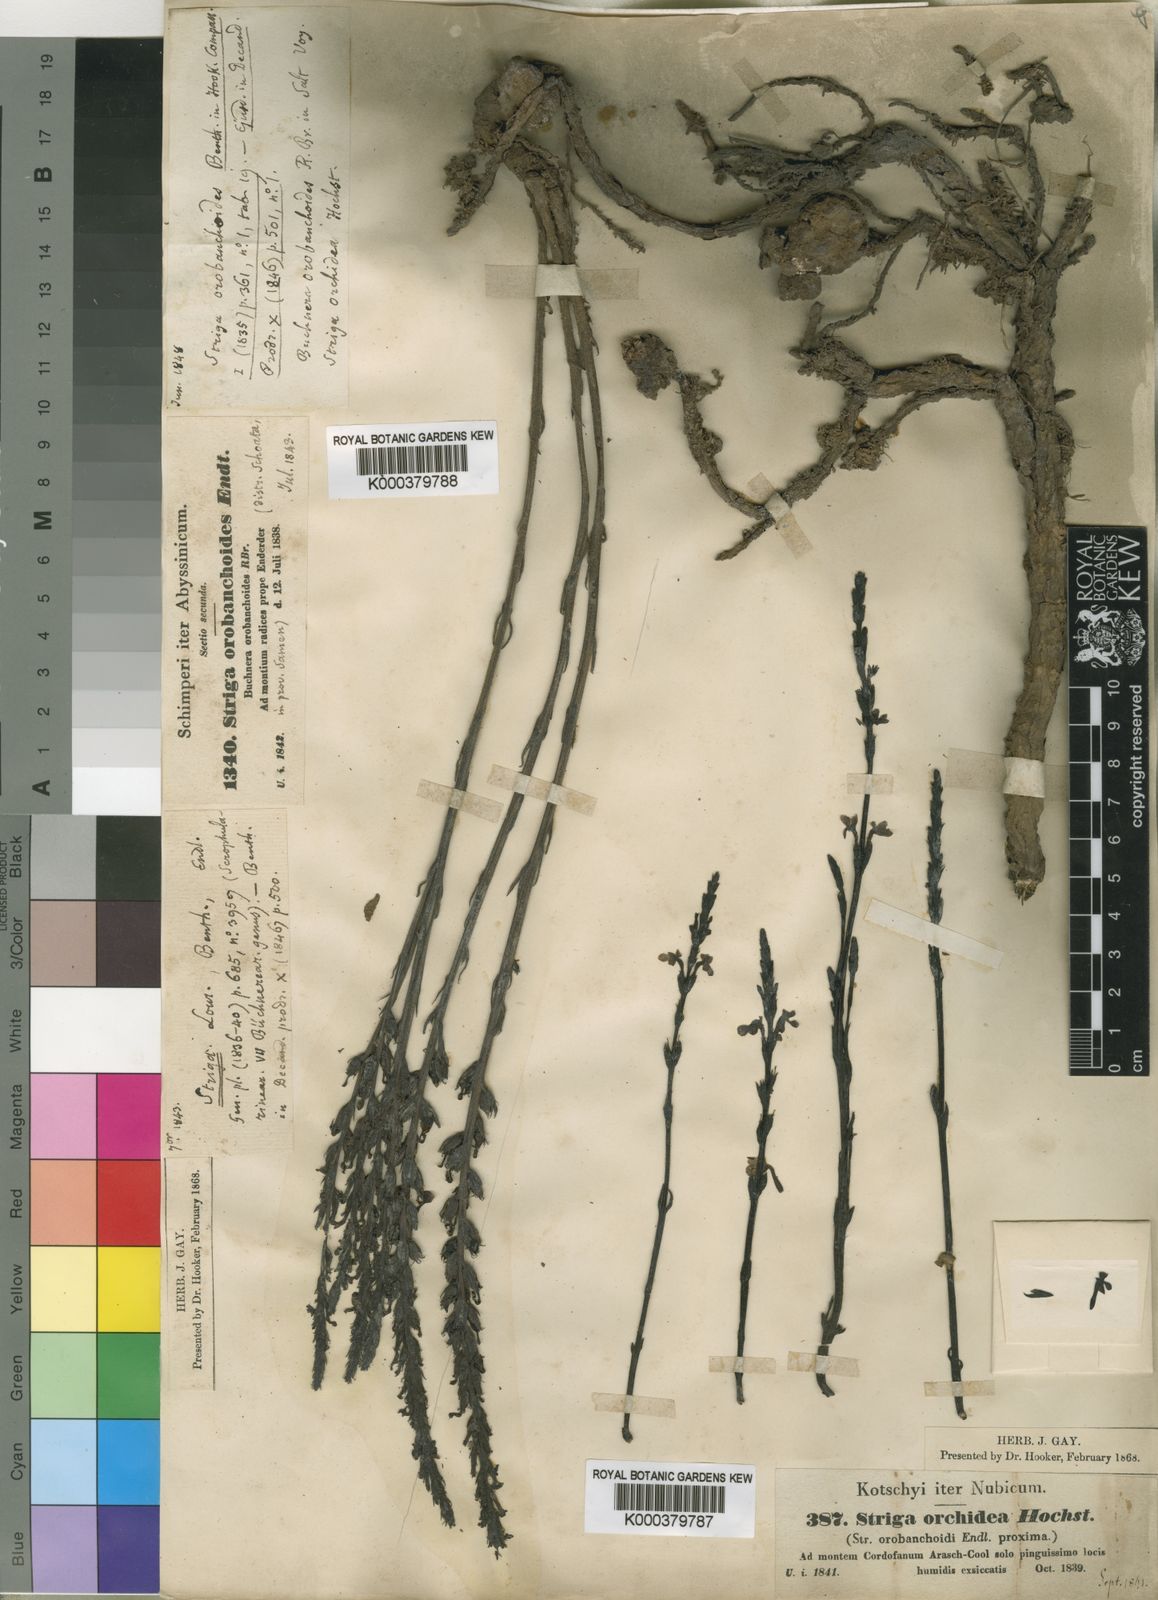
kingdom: Plantae
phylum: Tracheophyta
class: Magnoliopsida
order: Lamiales
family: Orobanchaceae
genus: Striga
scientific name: Striga gesnerioides
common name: Cowpea witchweed
